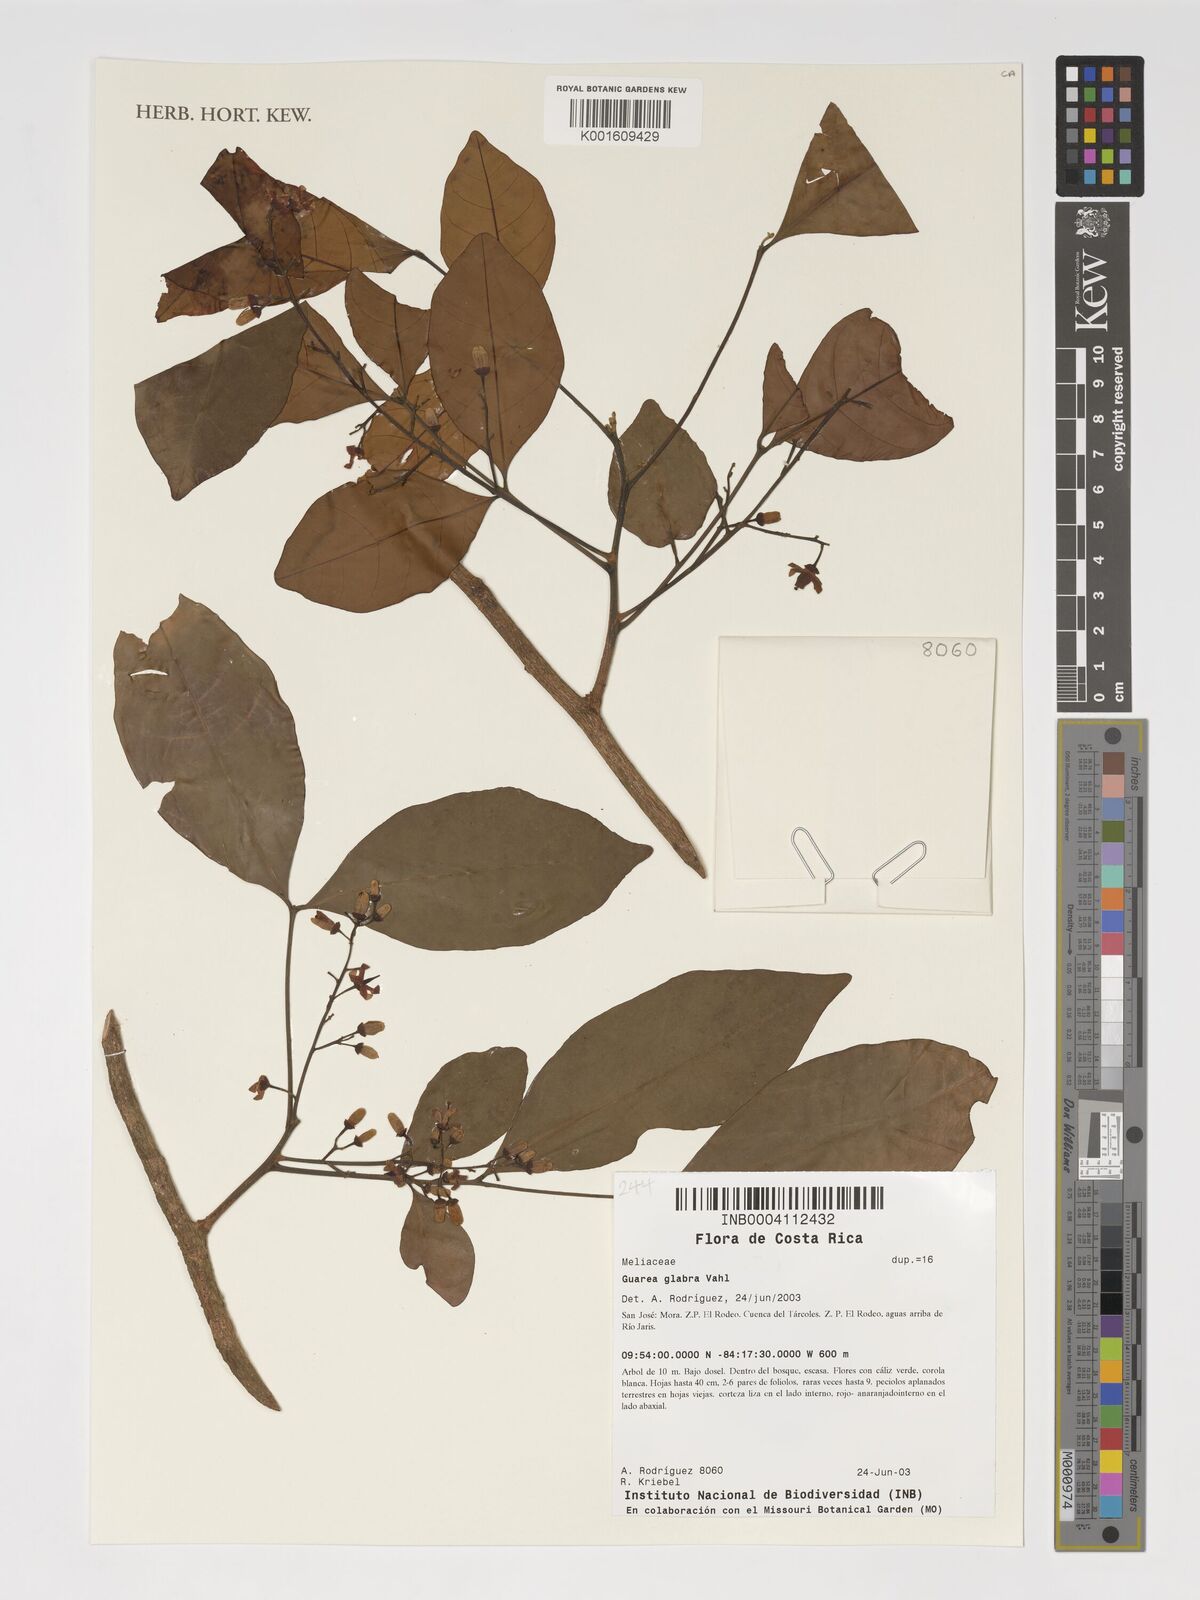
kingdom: Plantae
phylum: Tracheophyta
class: Magnoliopsida
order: Sapindales
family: Meliaceae
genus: Guarea
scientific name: Guarea glabra
